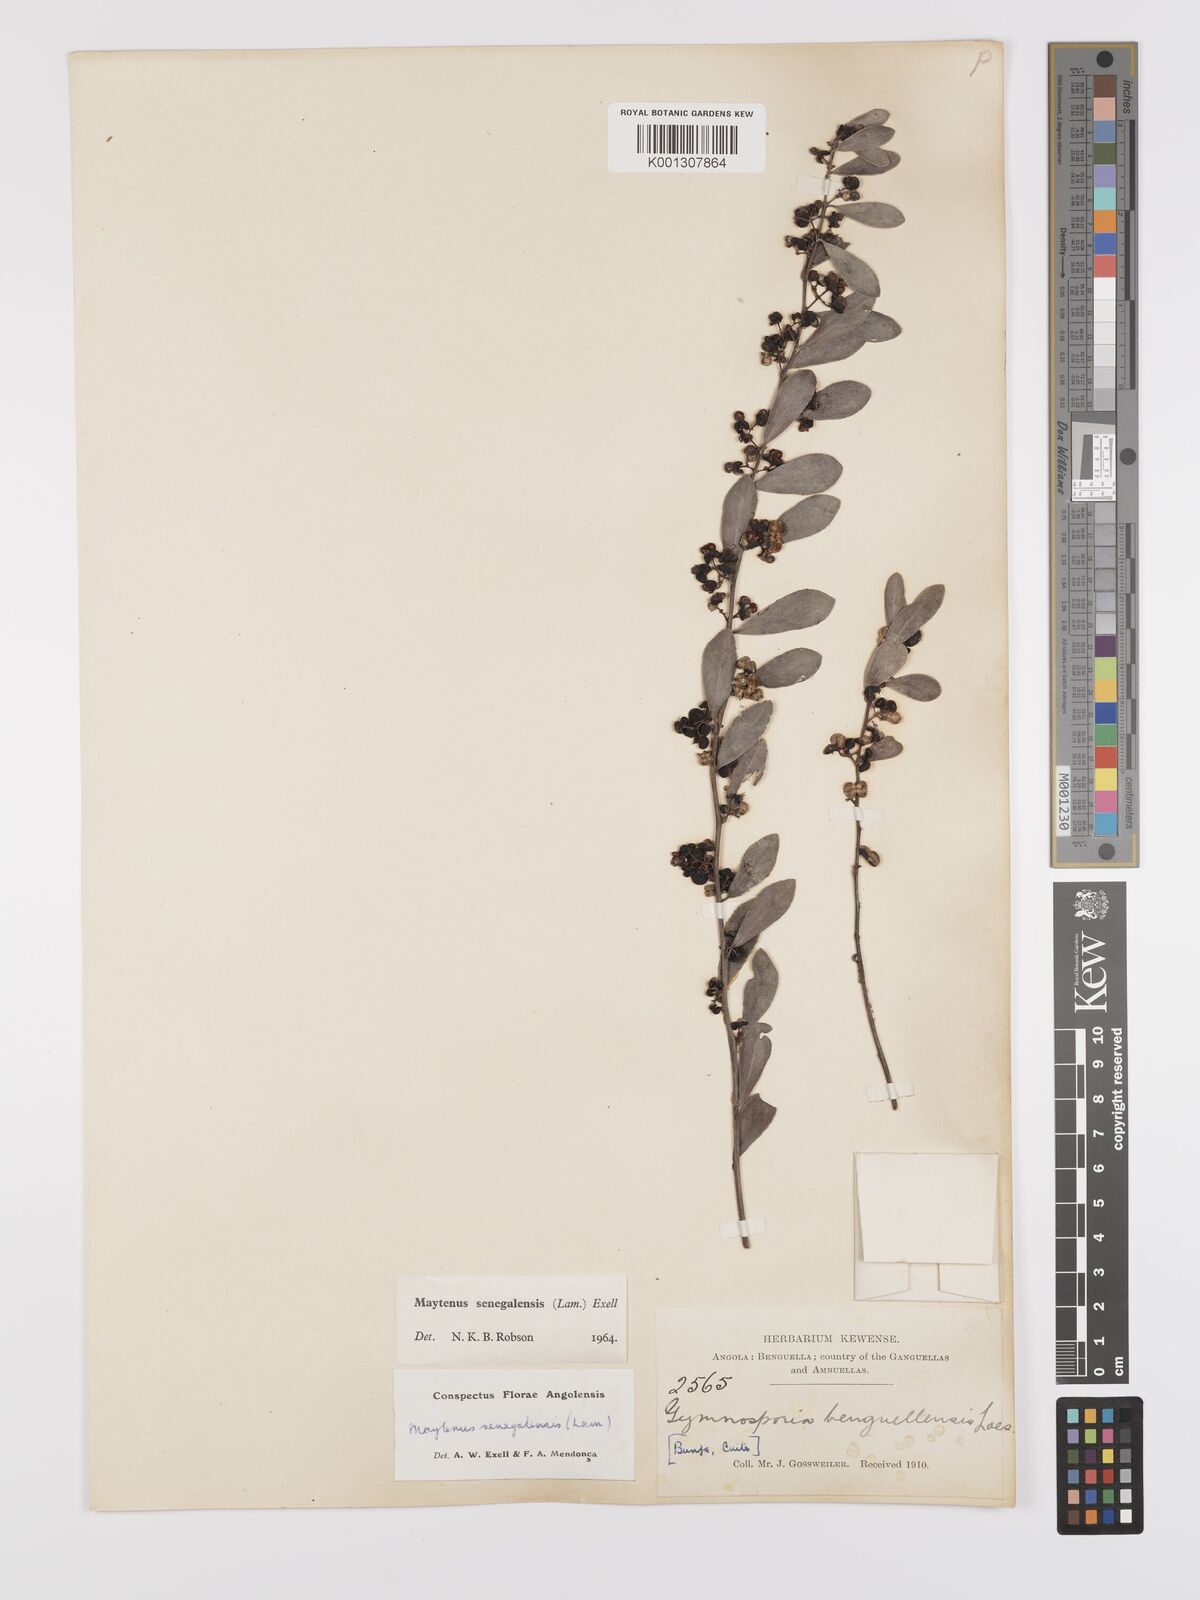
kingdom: Plantae
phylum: Tracheophyta
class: Magnoliopsida
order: Celastrales
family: Celastraceae
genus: Gymnosporia
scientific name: Gymnosporia senegalensis
